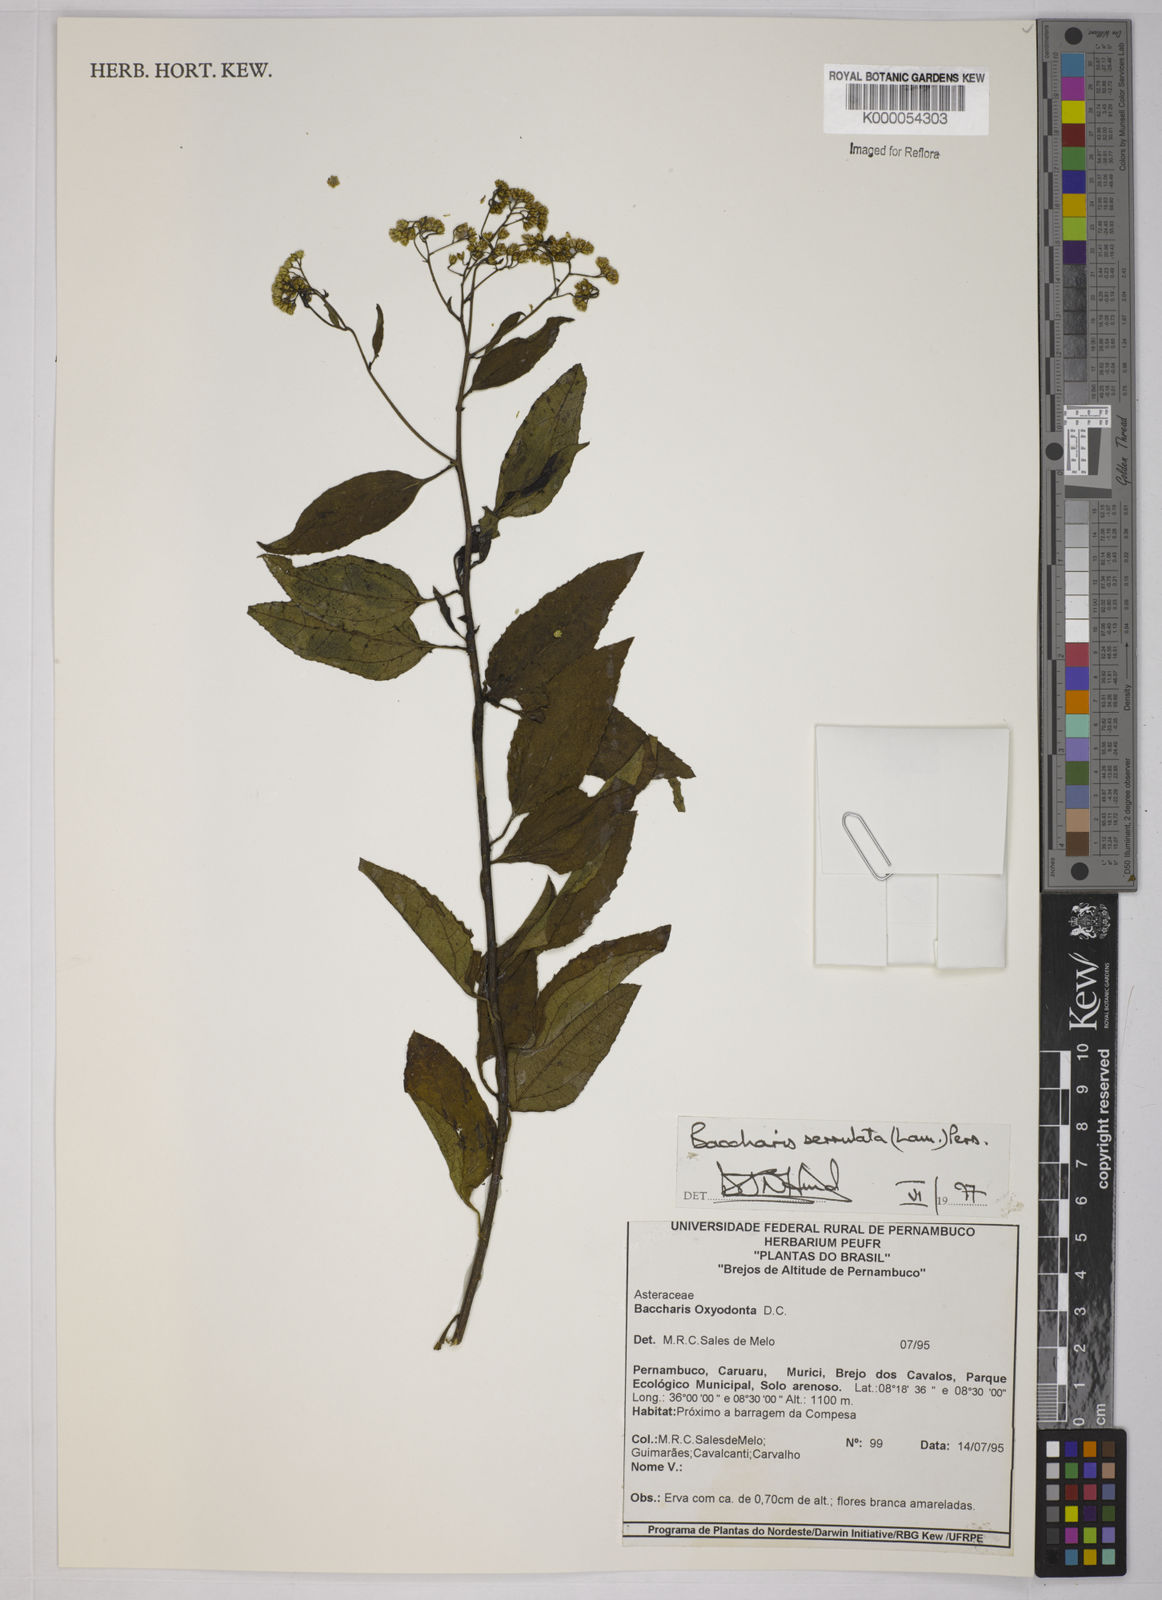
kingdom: Plantae
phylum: Tracheophyta
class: Magnoliopsida
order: Asterales
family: Asteraceae
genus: Baccharis
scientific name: Baccharis serrulata
